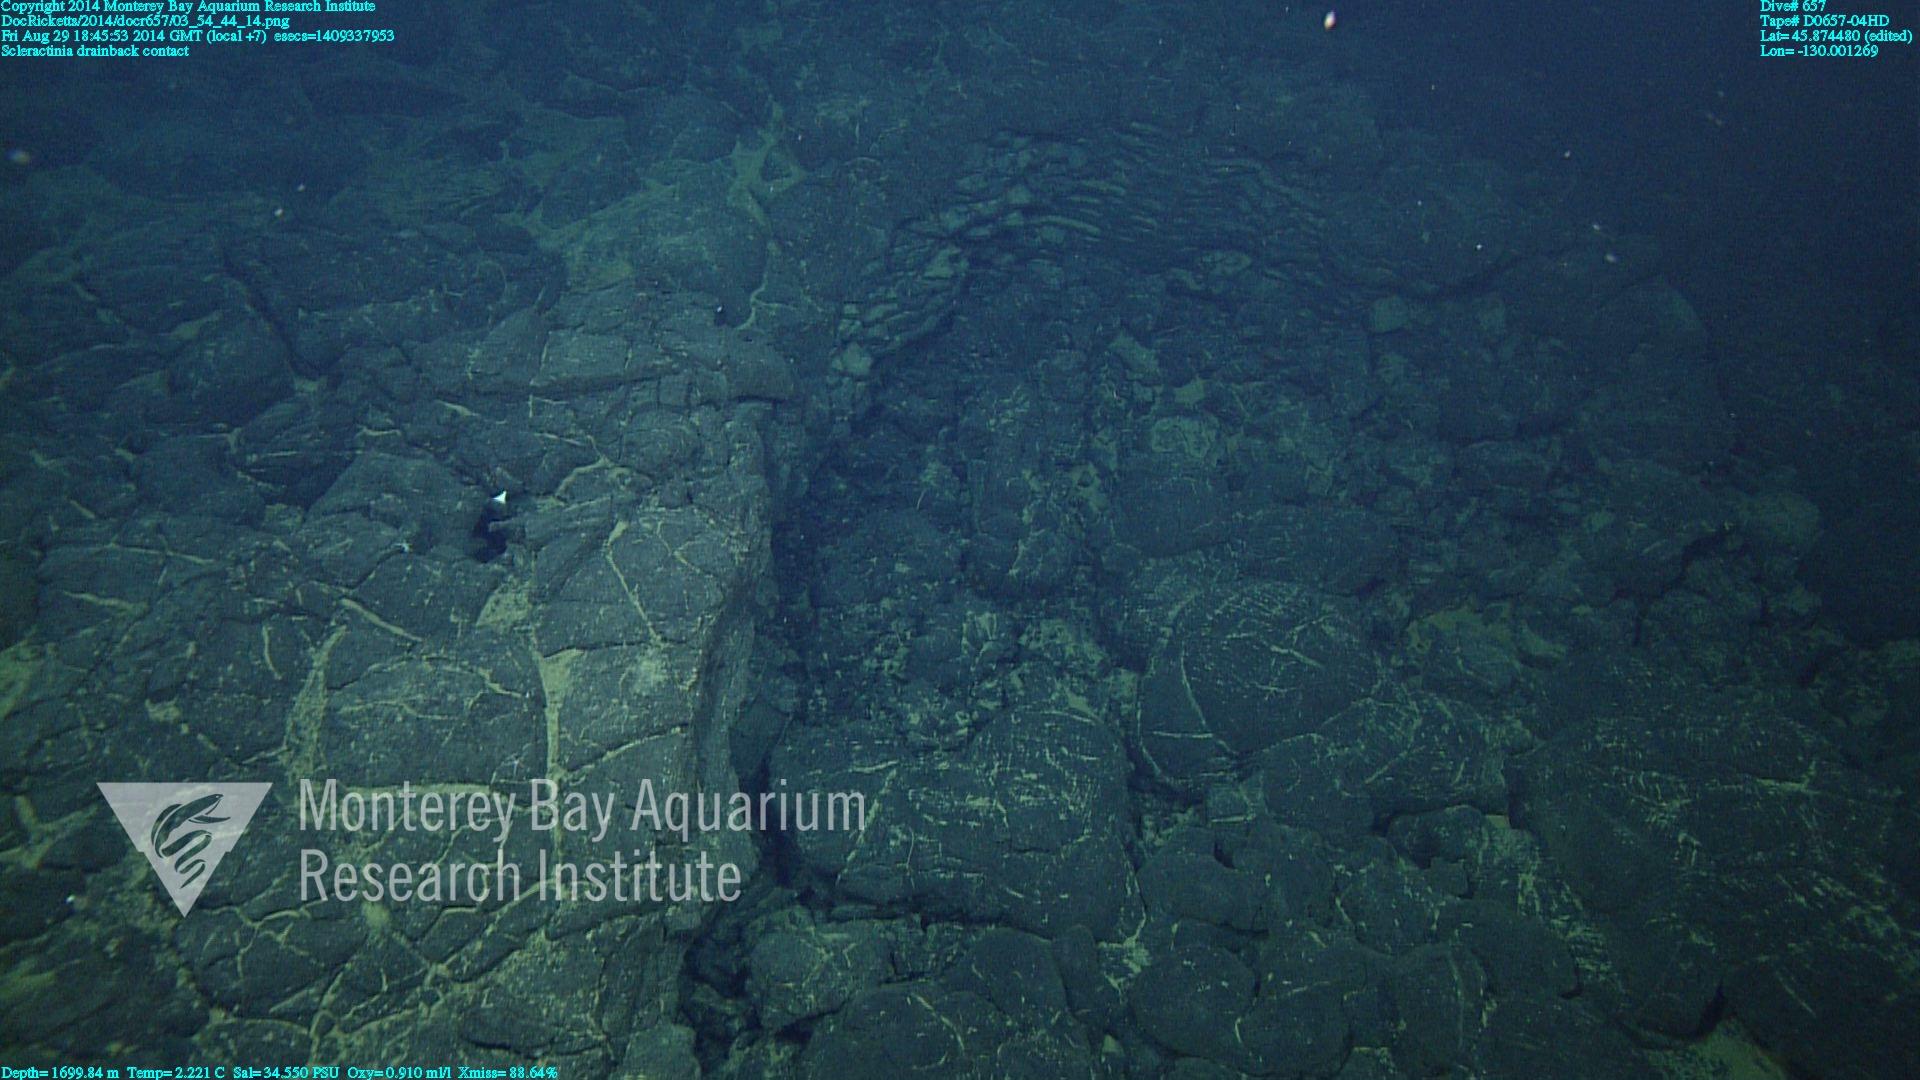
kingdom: Animalia
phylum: Cnidaria
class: Anthozoa
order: Scleractinia
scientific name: Scleractinia
